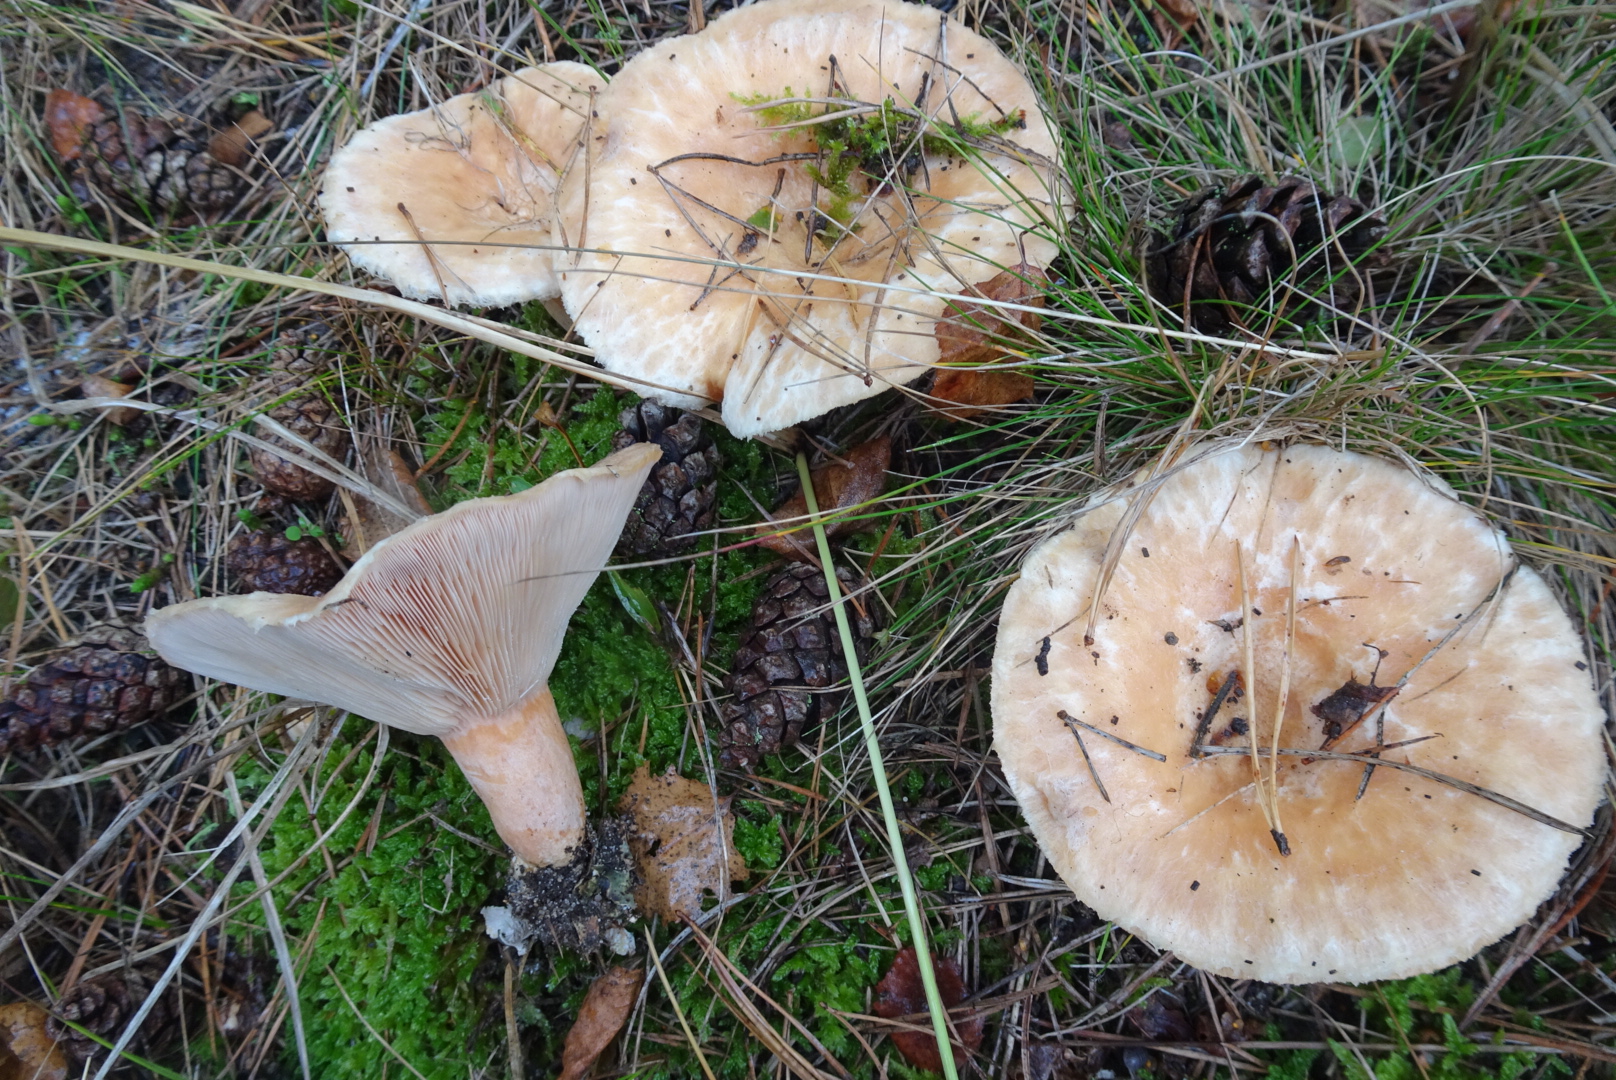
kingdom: Fungi
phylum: Basidiomycota
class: Agaricomycetes
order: Russulales
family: Russulaceae
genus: Lactarius
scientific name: Lactarius pubescens
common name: dunet mælkehat
